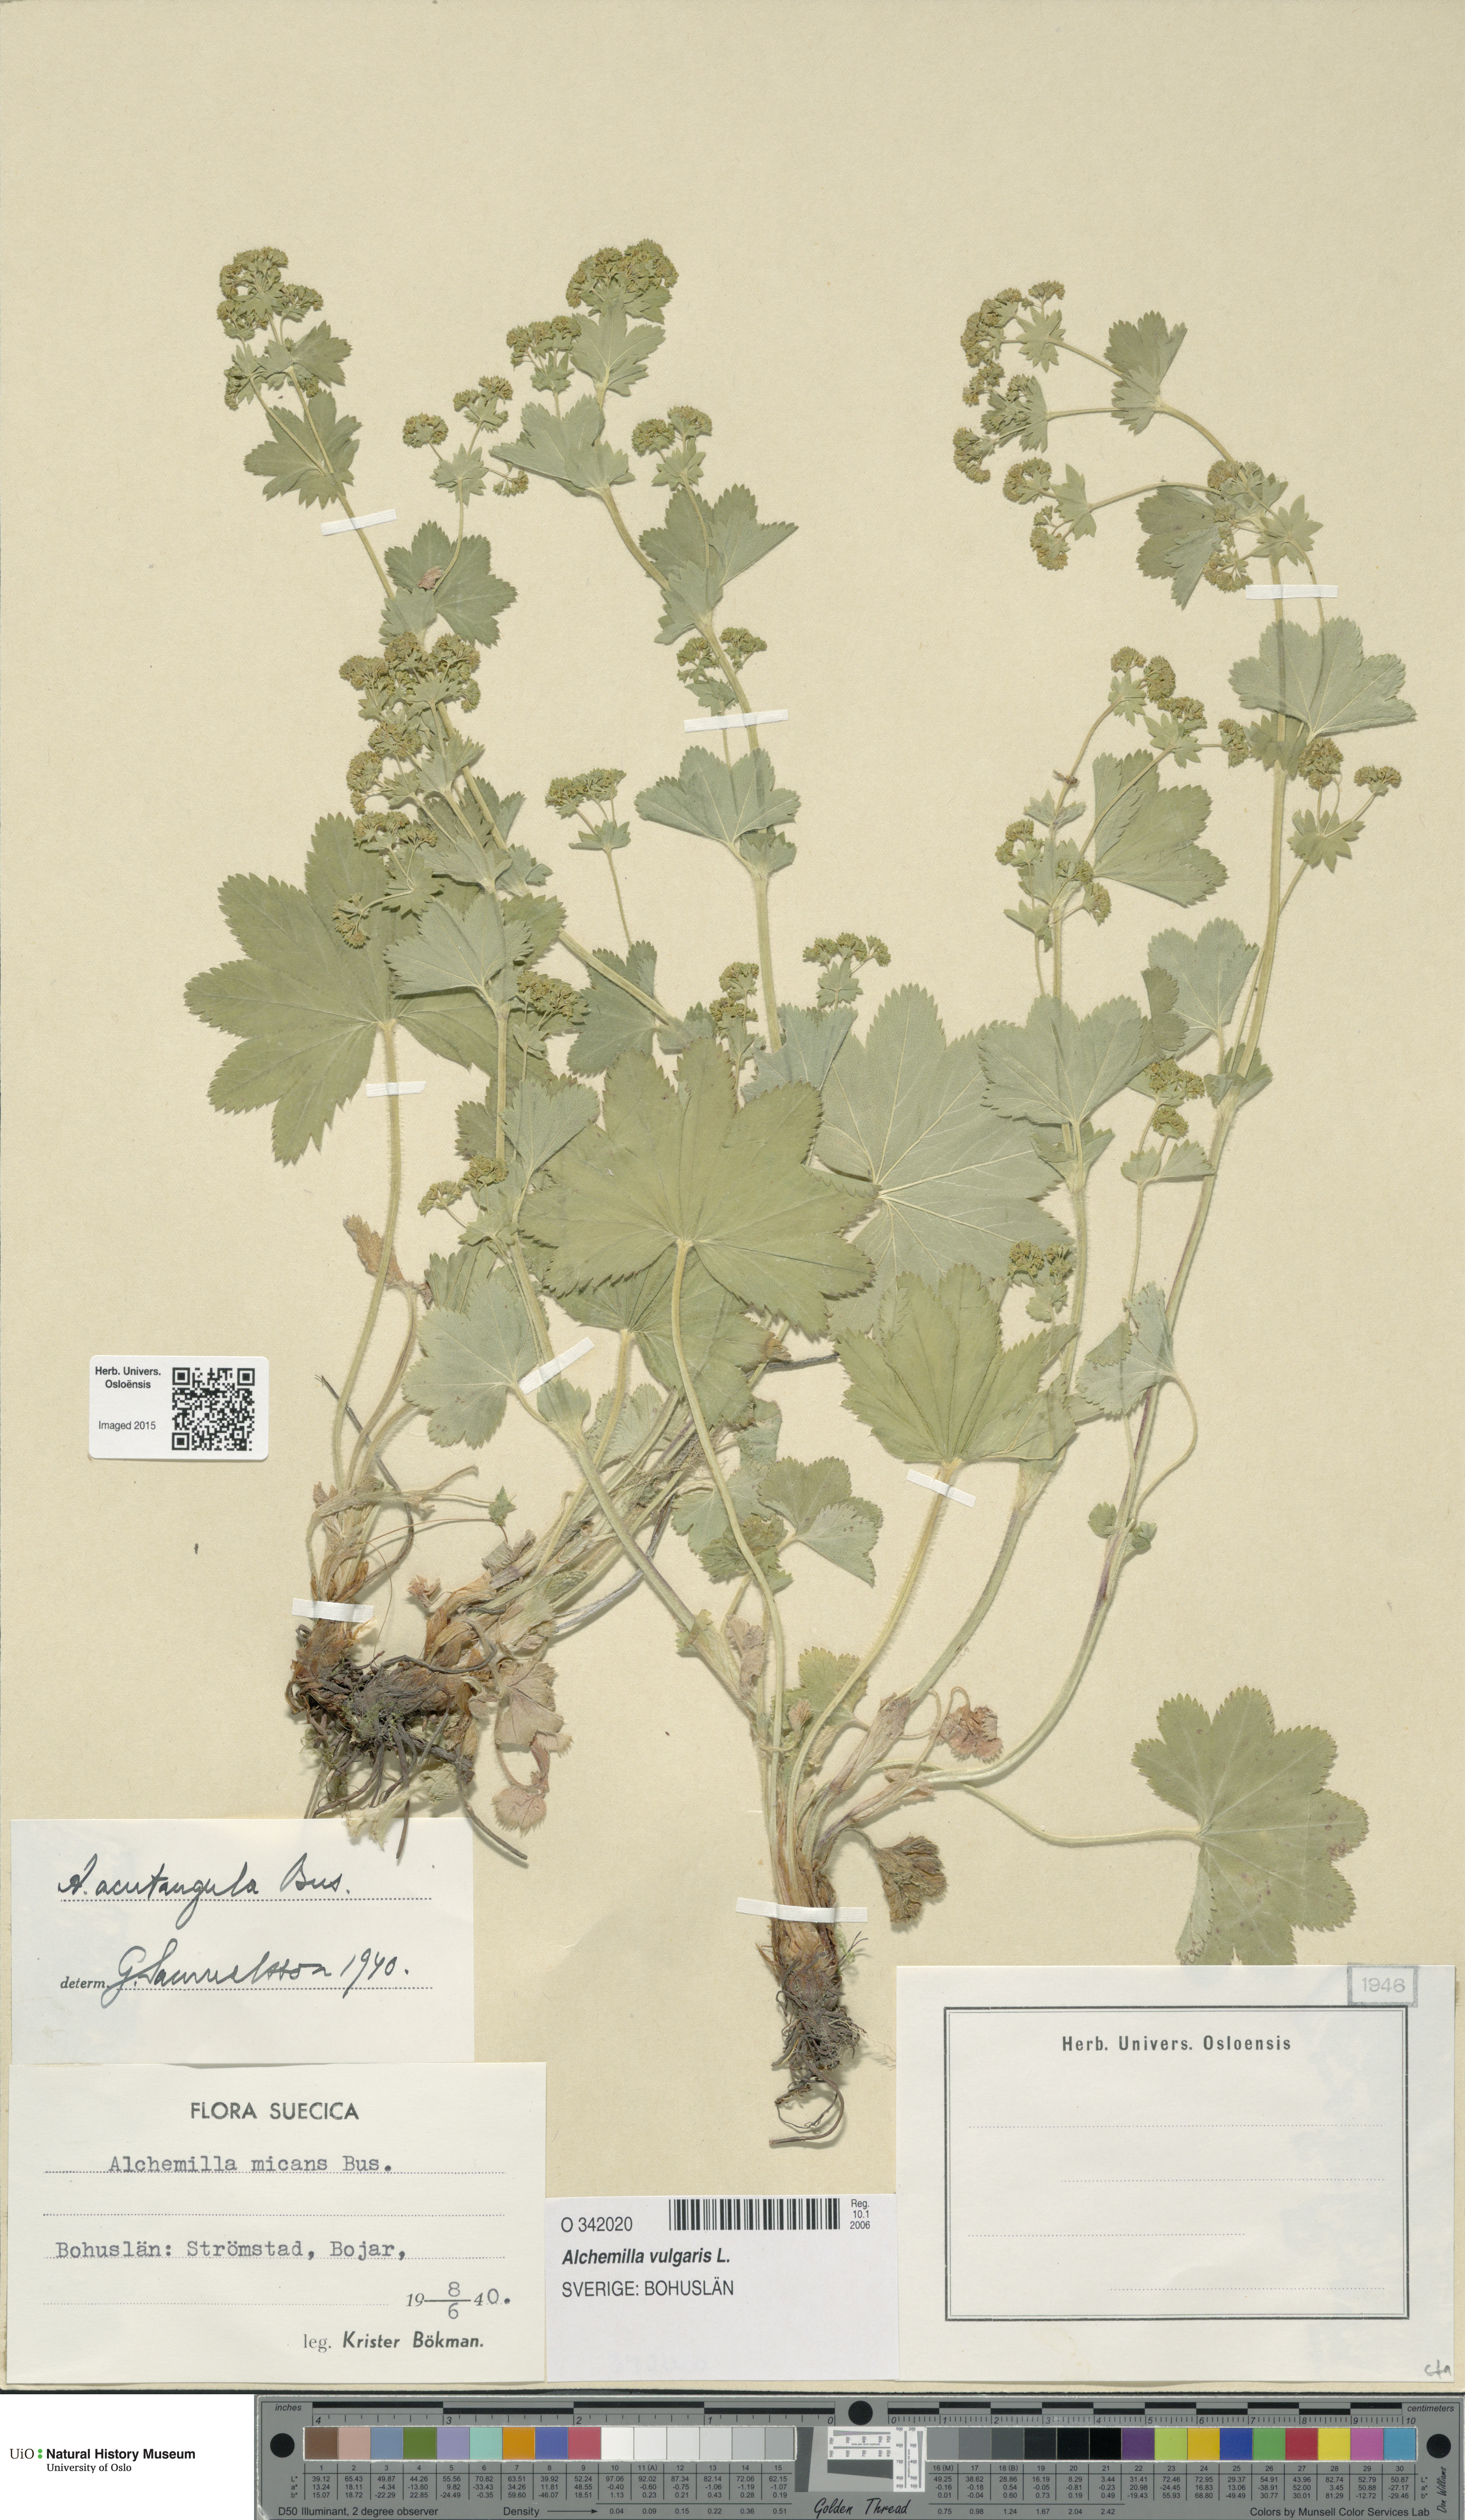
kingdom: Plantae
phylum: Tracheophyta
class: Magnoliopsida
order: Rosales
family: Rosaceae
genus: Alchemilla
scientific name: Alchemilla vulgaris
